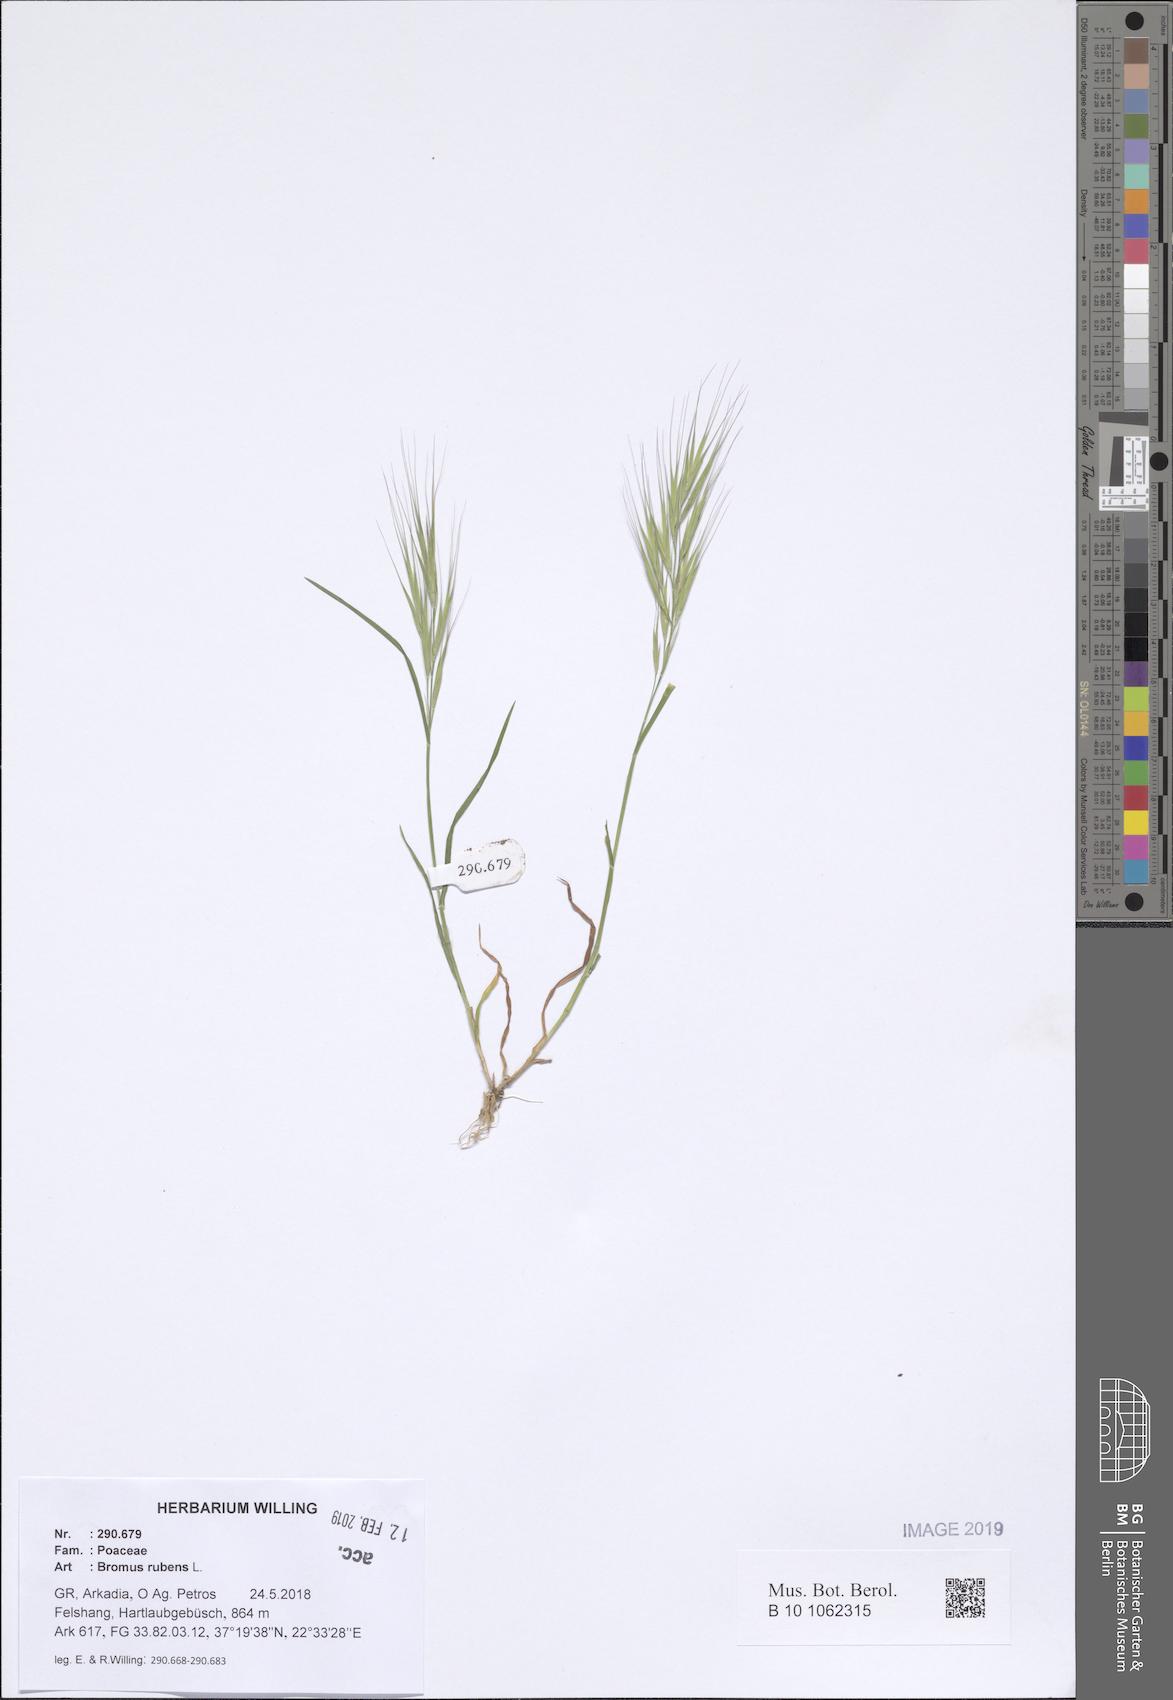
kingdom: Plantae
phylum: Tracheophyta
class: Liliopsida
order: Poales
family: Poaceae
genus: Bromus
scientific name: Bromus rubens
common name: Red brome
